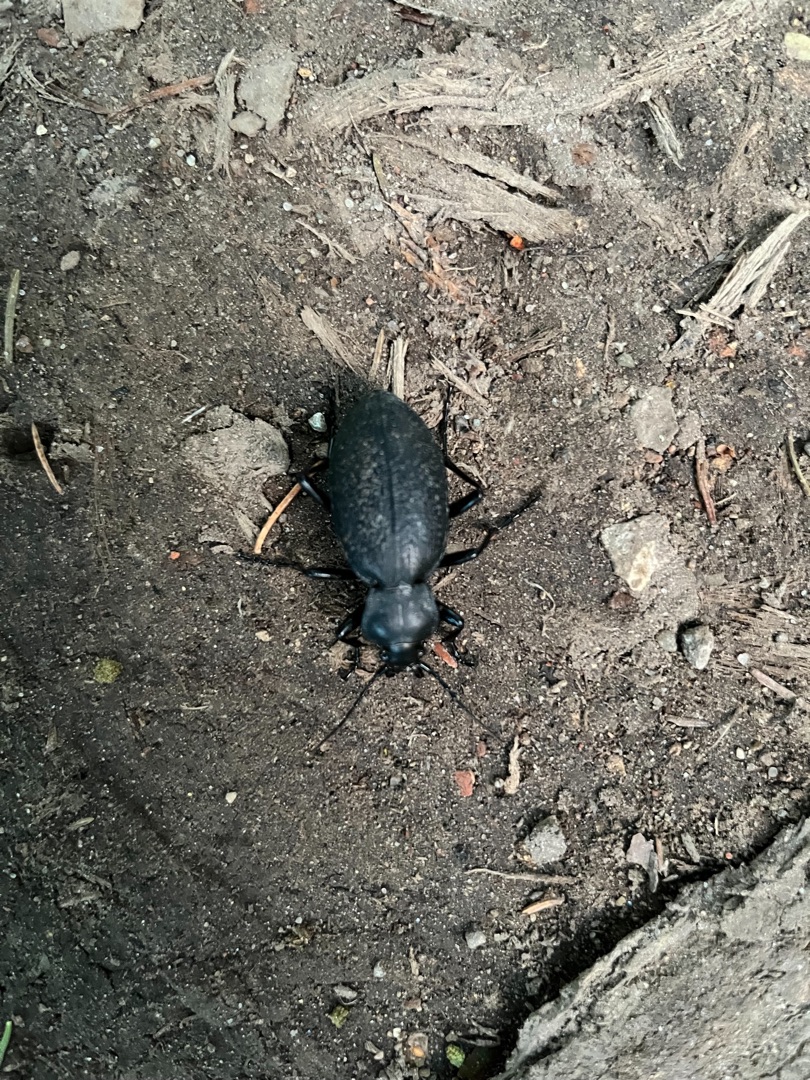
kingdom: Animalia
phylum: Arthropoda
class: Insecta
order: Coleoptera
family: Carabidae
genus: Carabus
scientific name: Carabus coriaceus
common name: Læderløber
